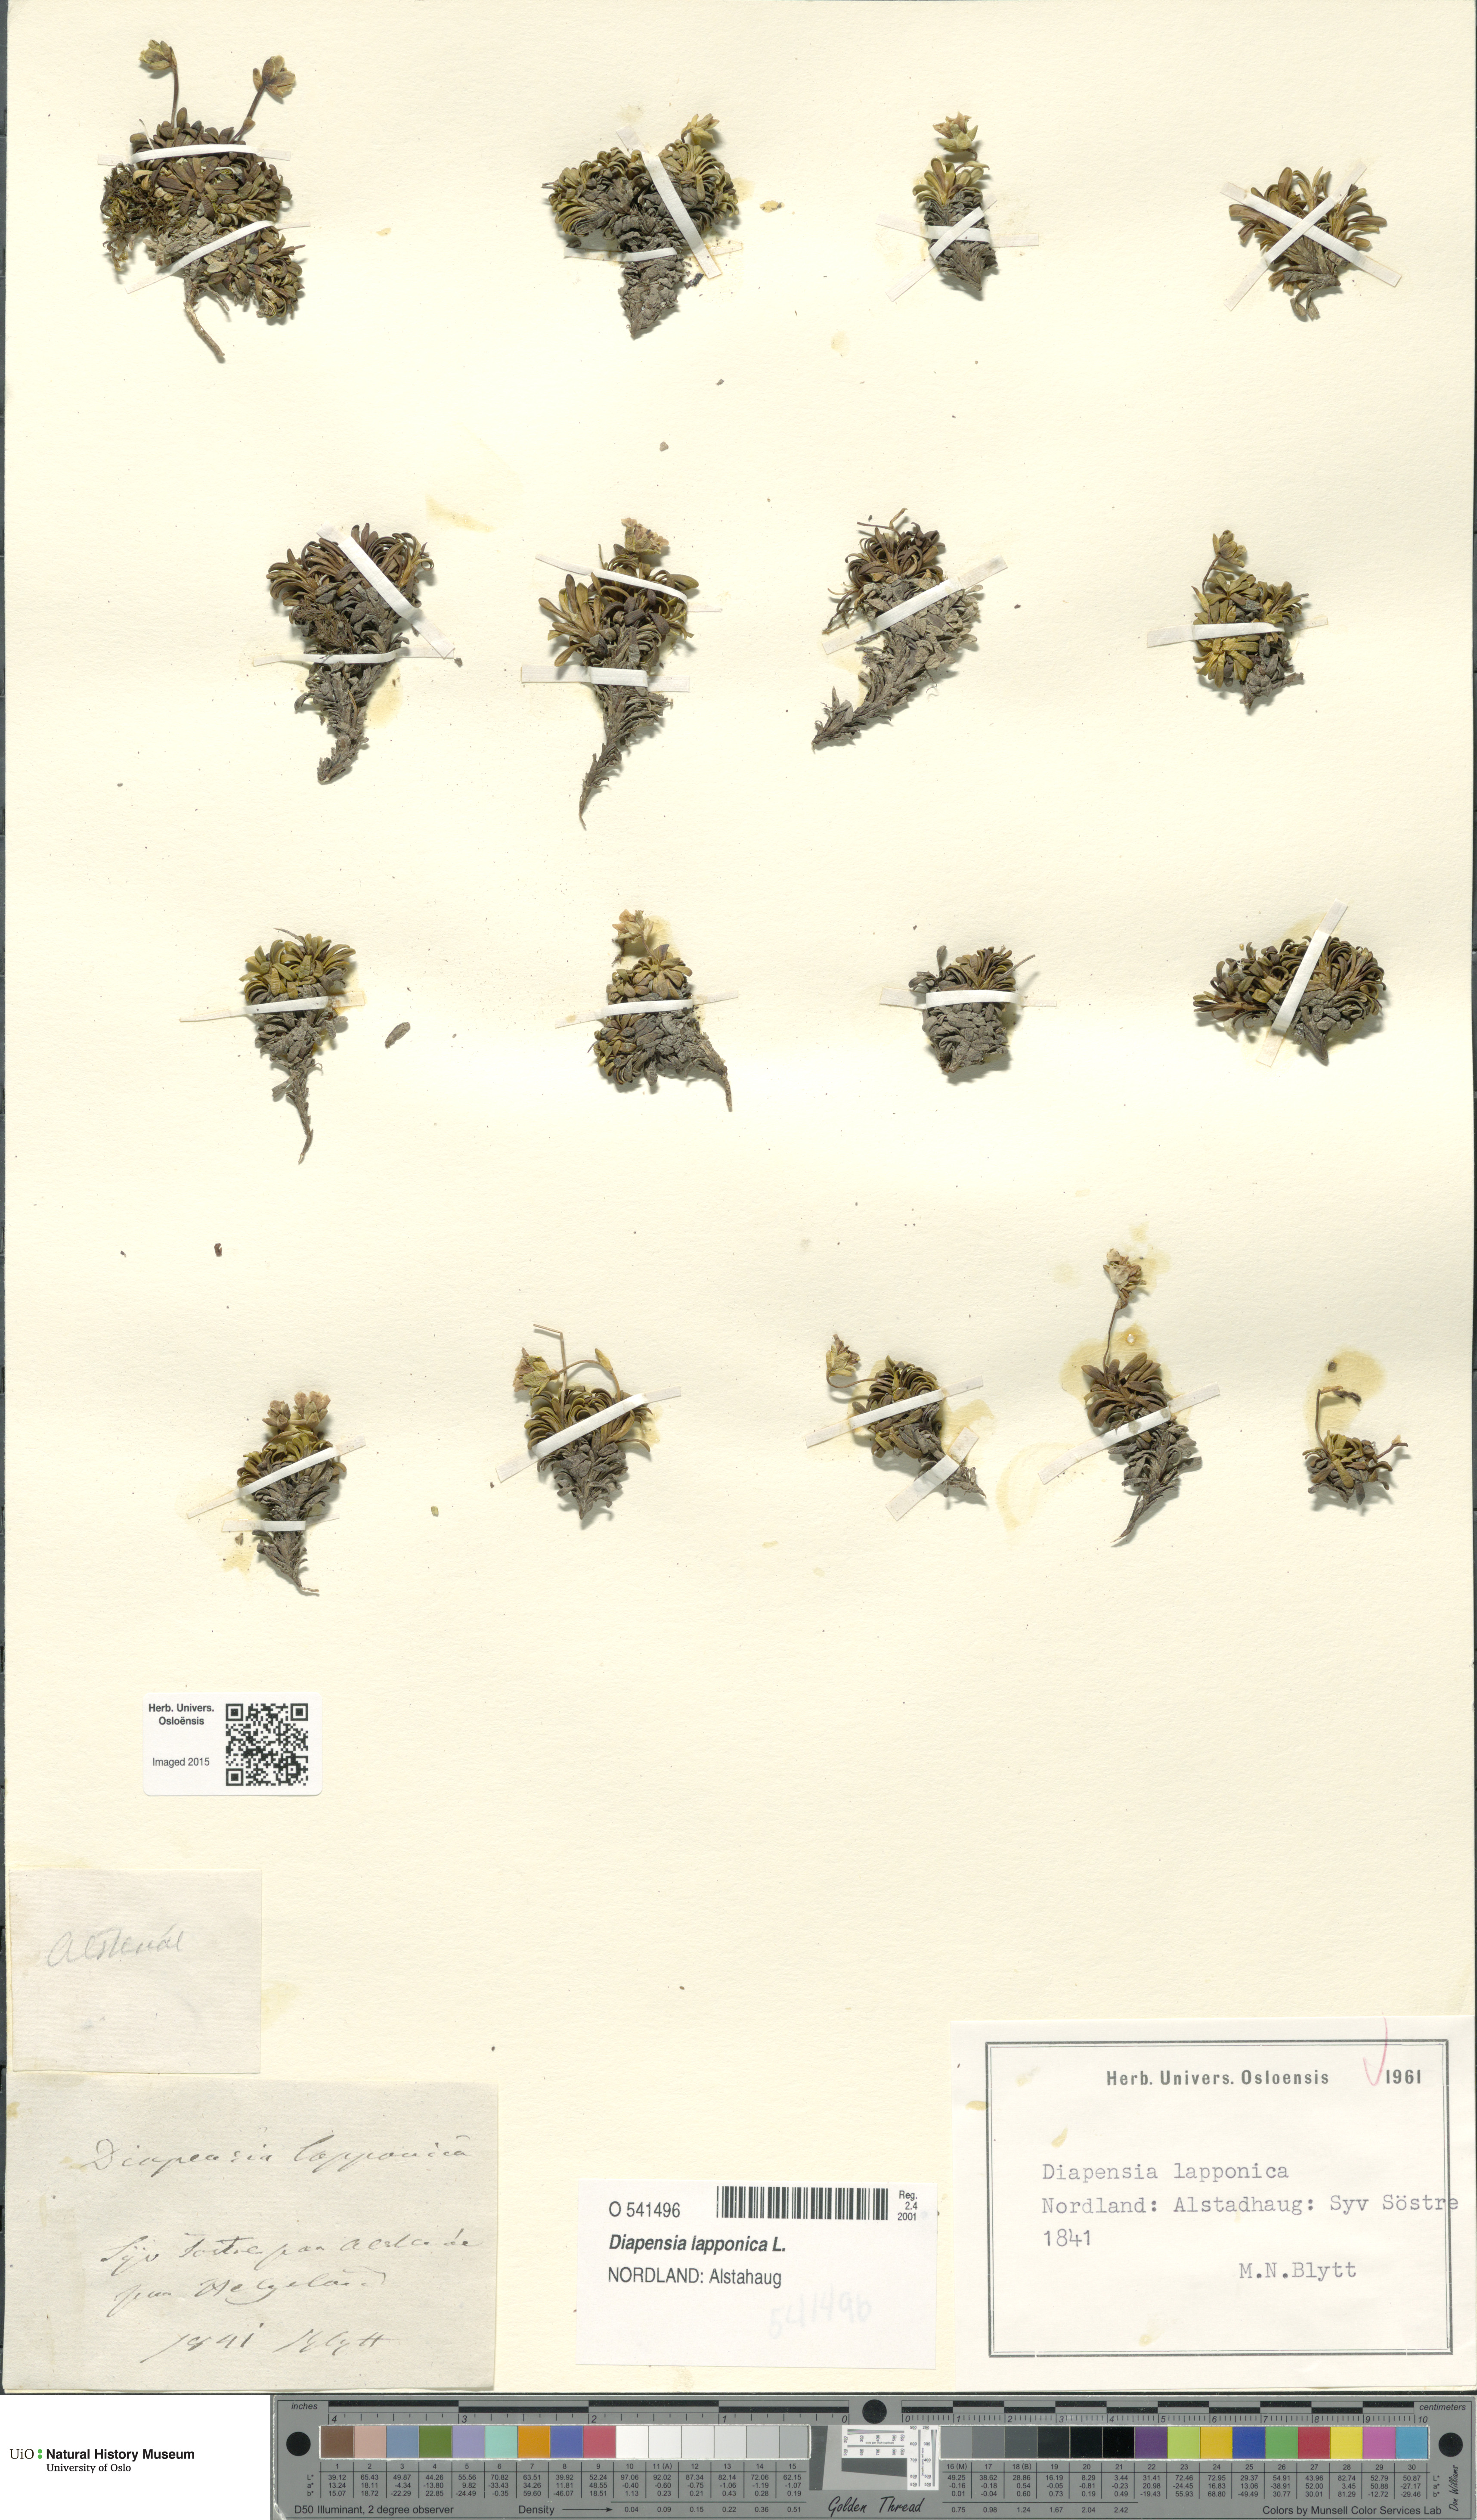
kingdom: Plantae
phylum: Tracheophyta
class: Magnoliopsida
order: Ericales
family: Diapensiaceae
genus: Diapensia
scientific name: Diapensia lapponica
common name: Diapensia
